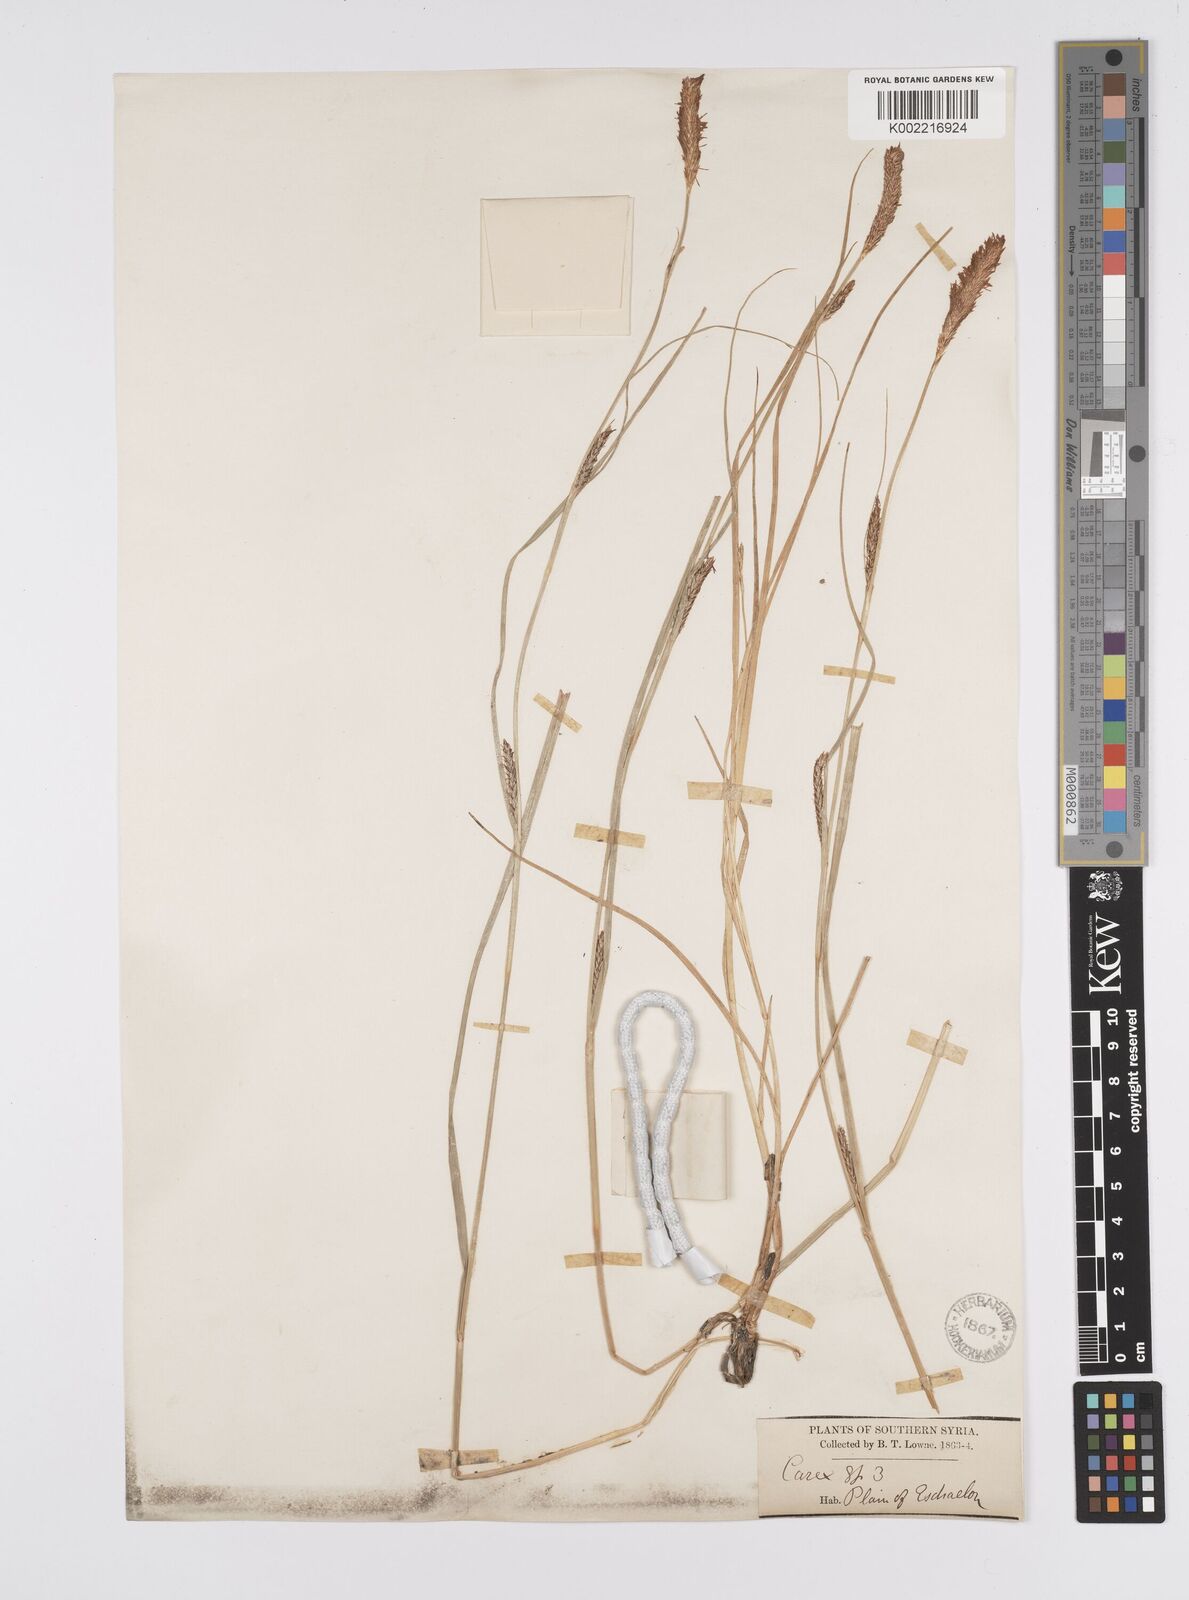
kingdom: Plantae
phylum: Tracheophyta
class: Liliopsida
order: Poales
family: Cyperaceae
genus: Carex
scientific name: Carex distans
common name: Distant sedge
